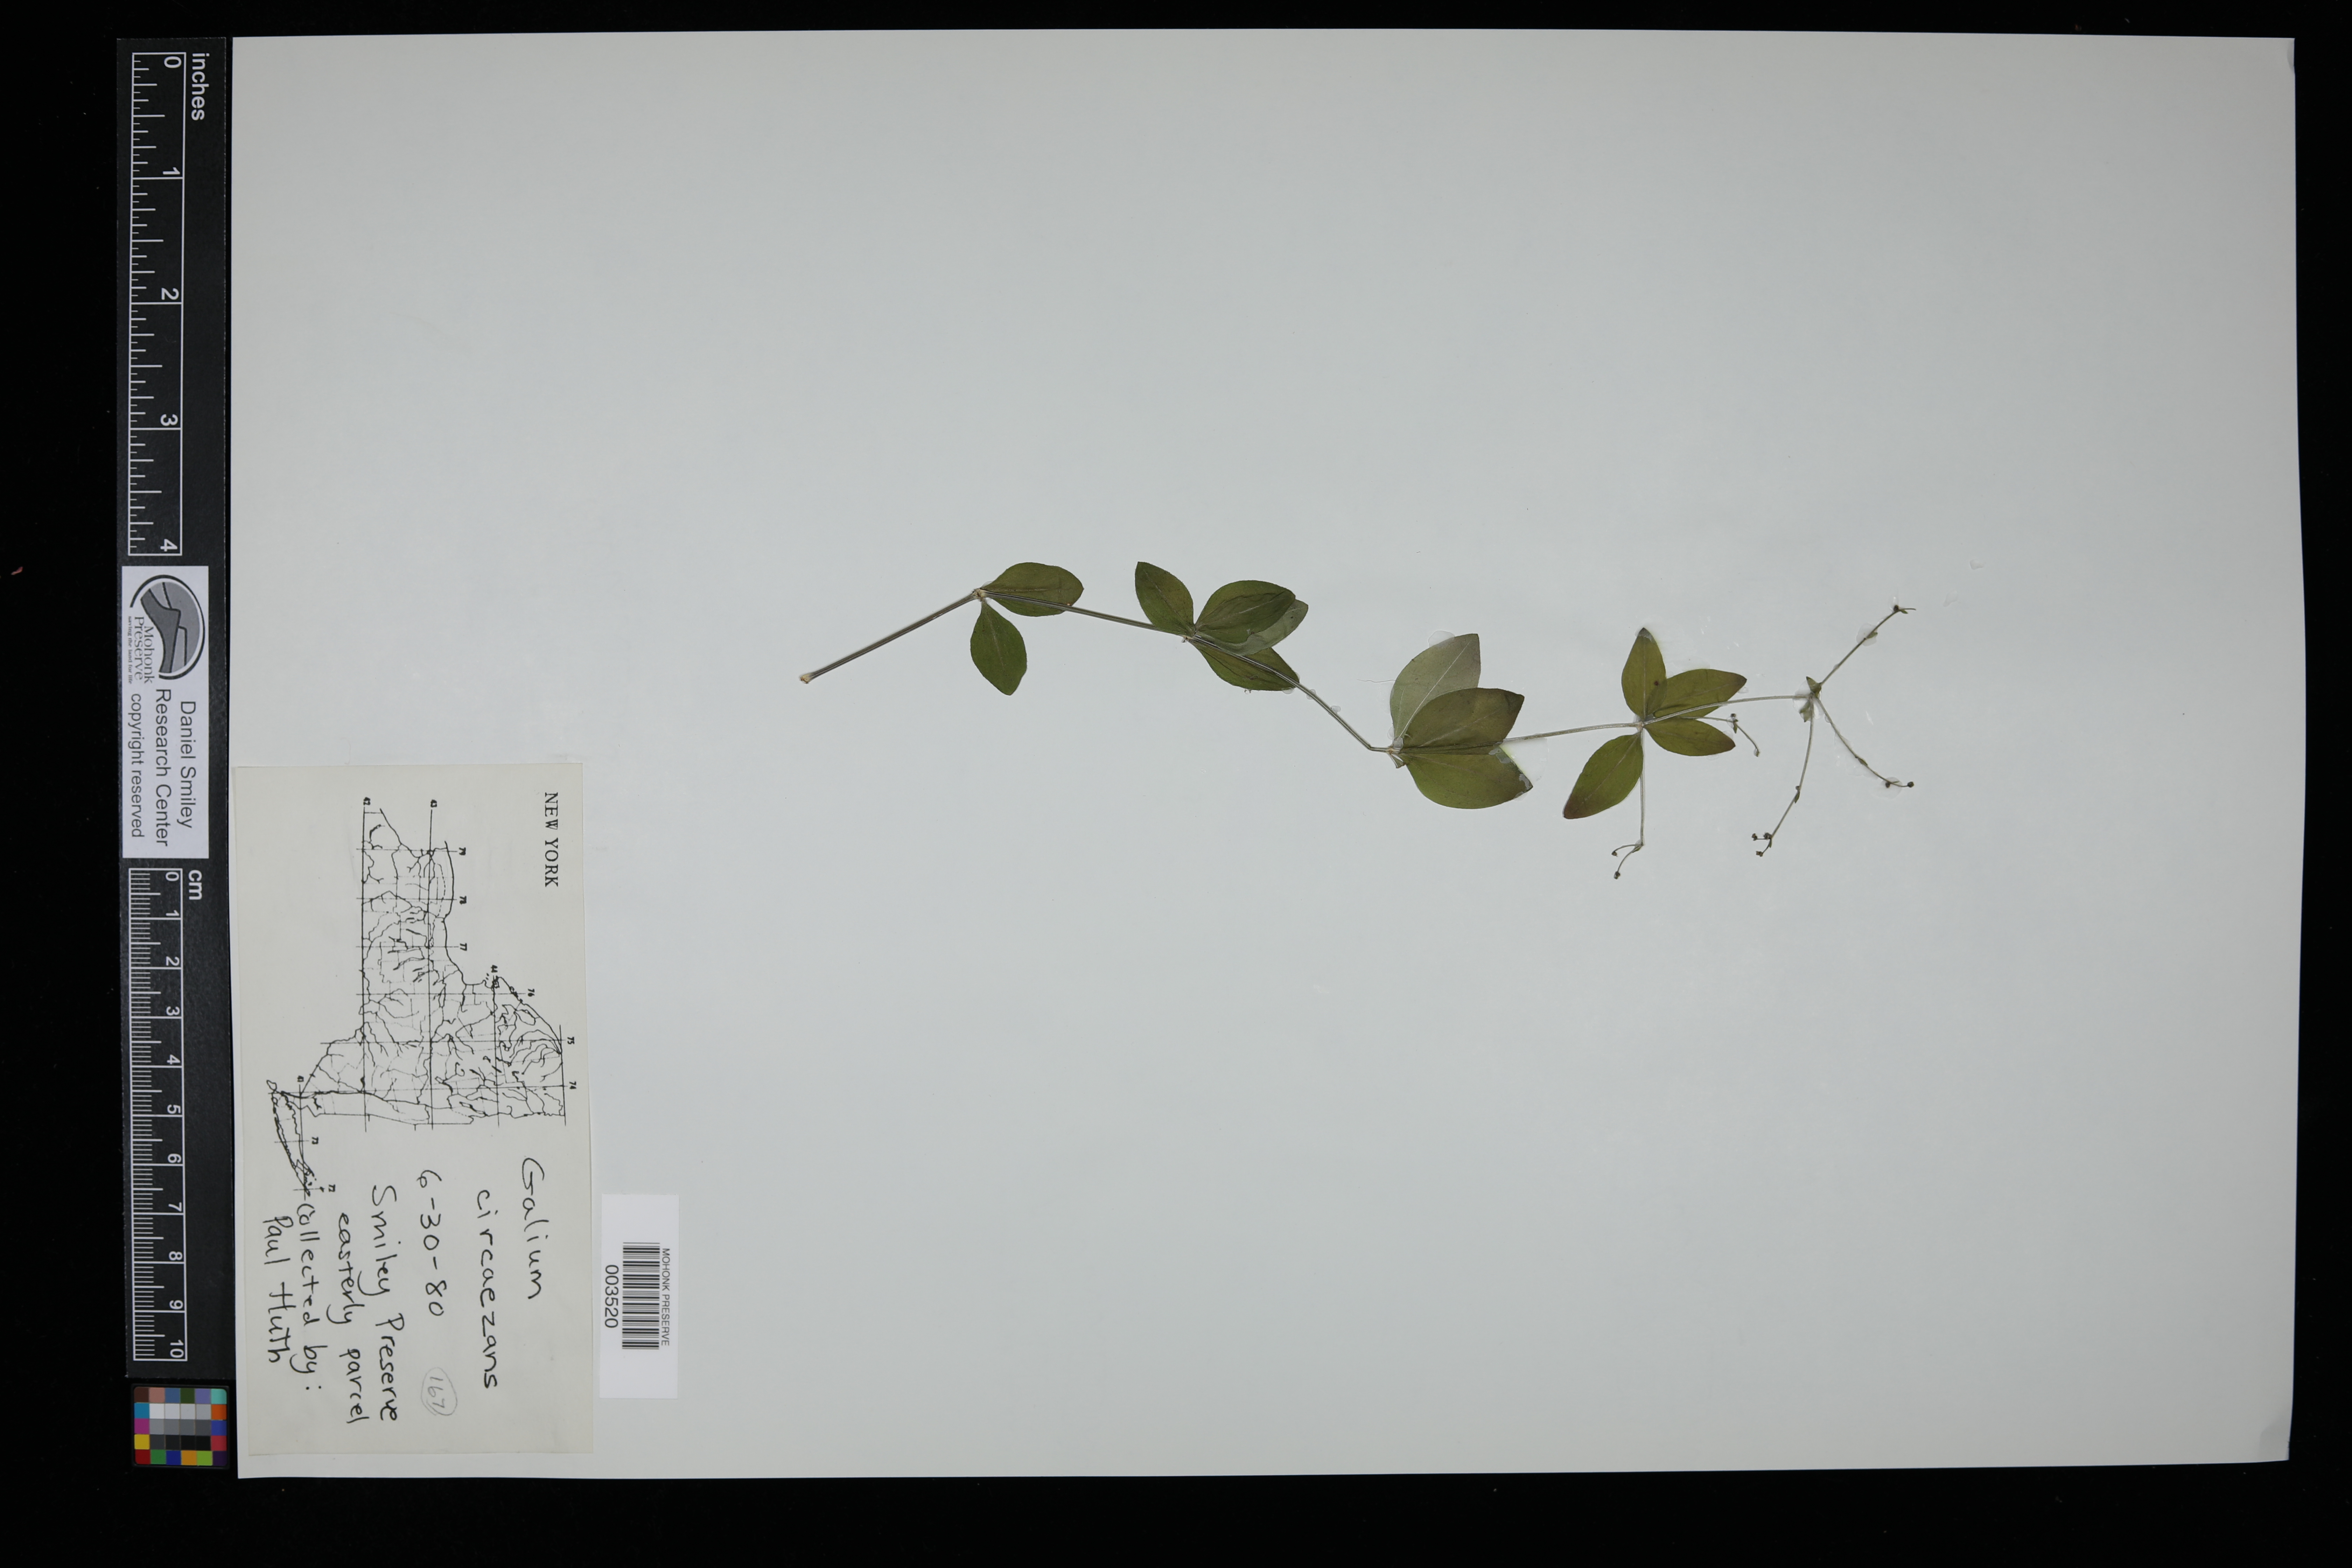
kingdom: Plantae
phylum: Tracheophyta
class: Magnoliopsida
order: Gentianales
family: Rubiaceae
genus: Galium
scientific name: Galium circaezans
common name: Forest bedstraw
